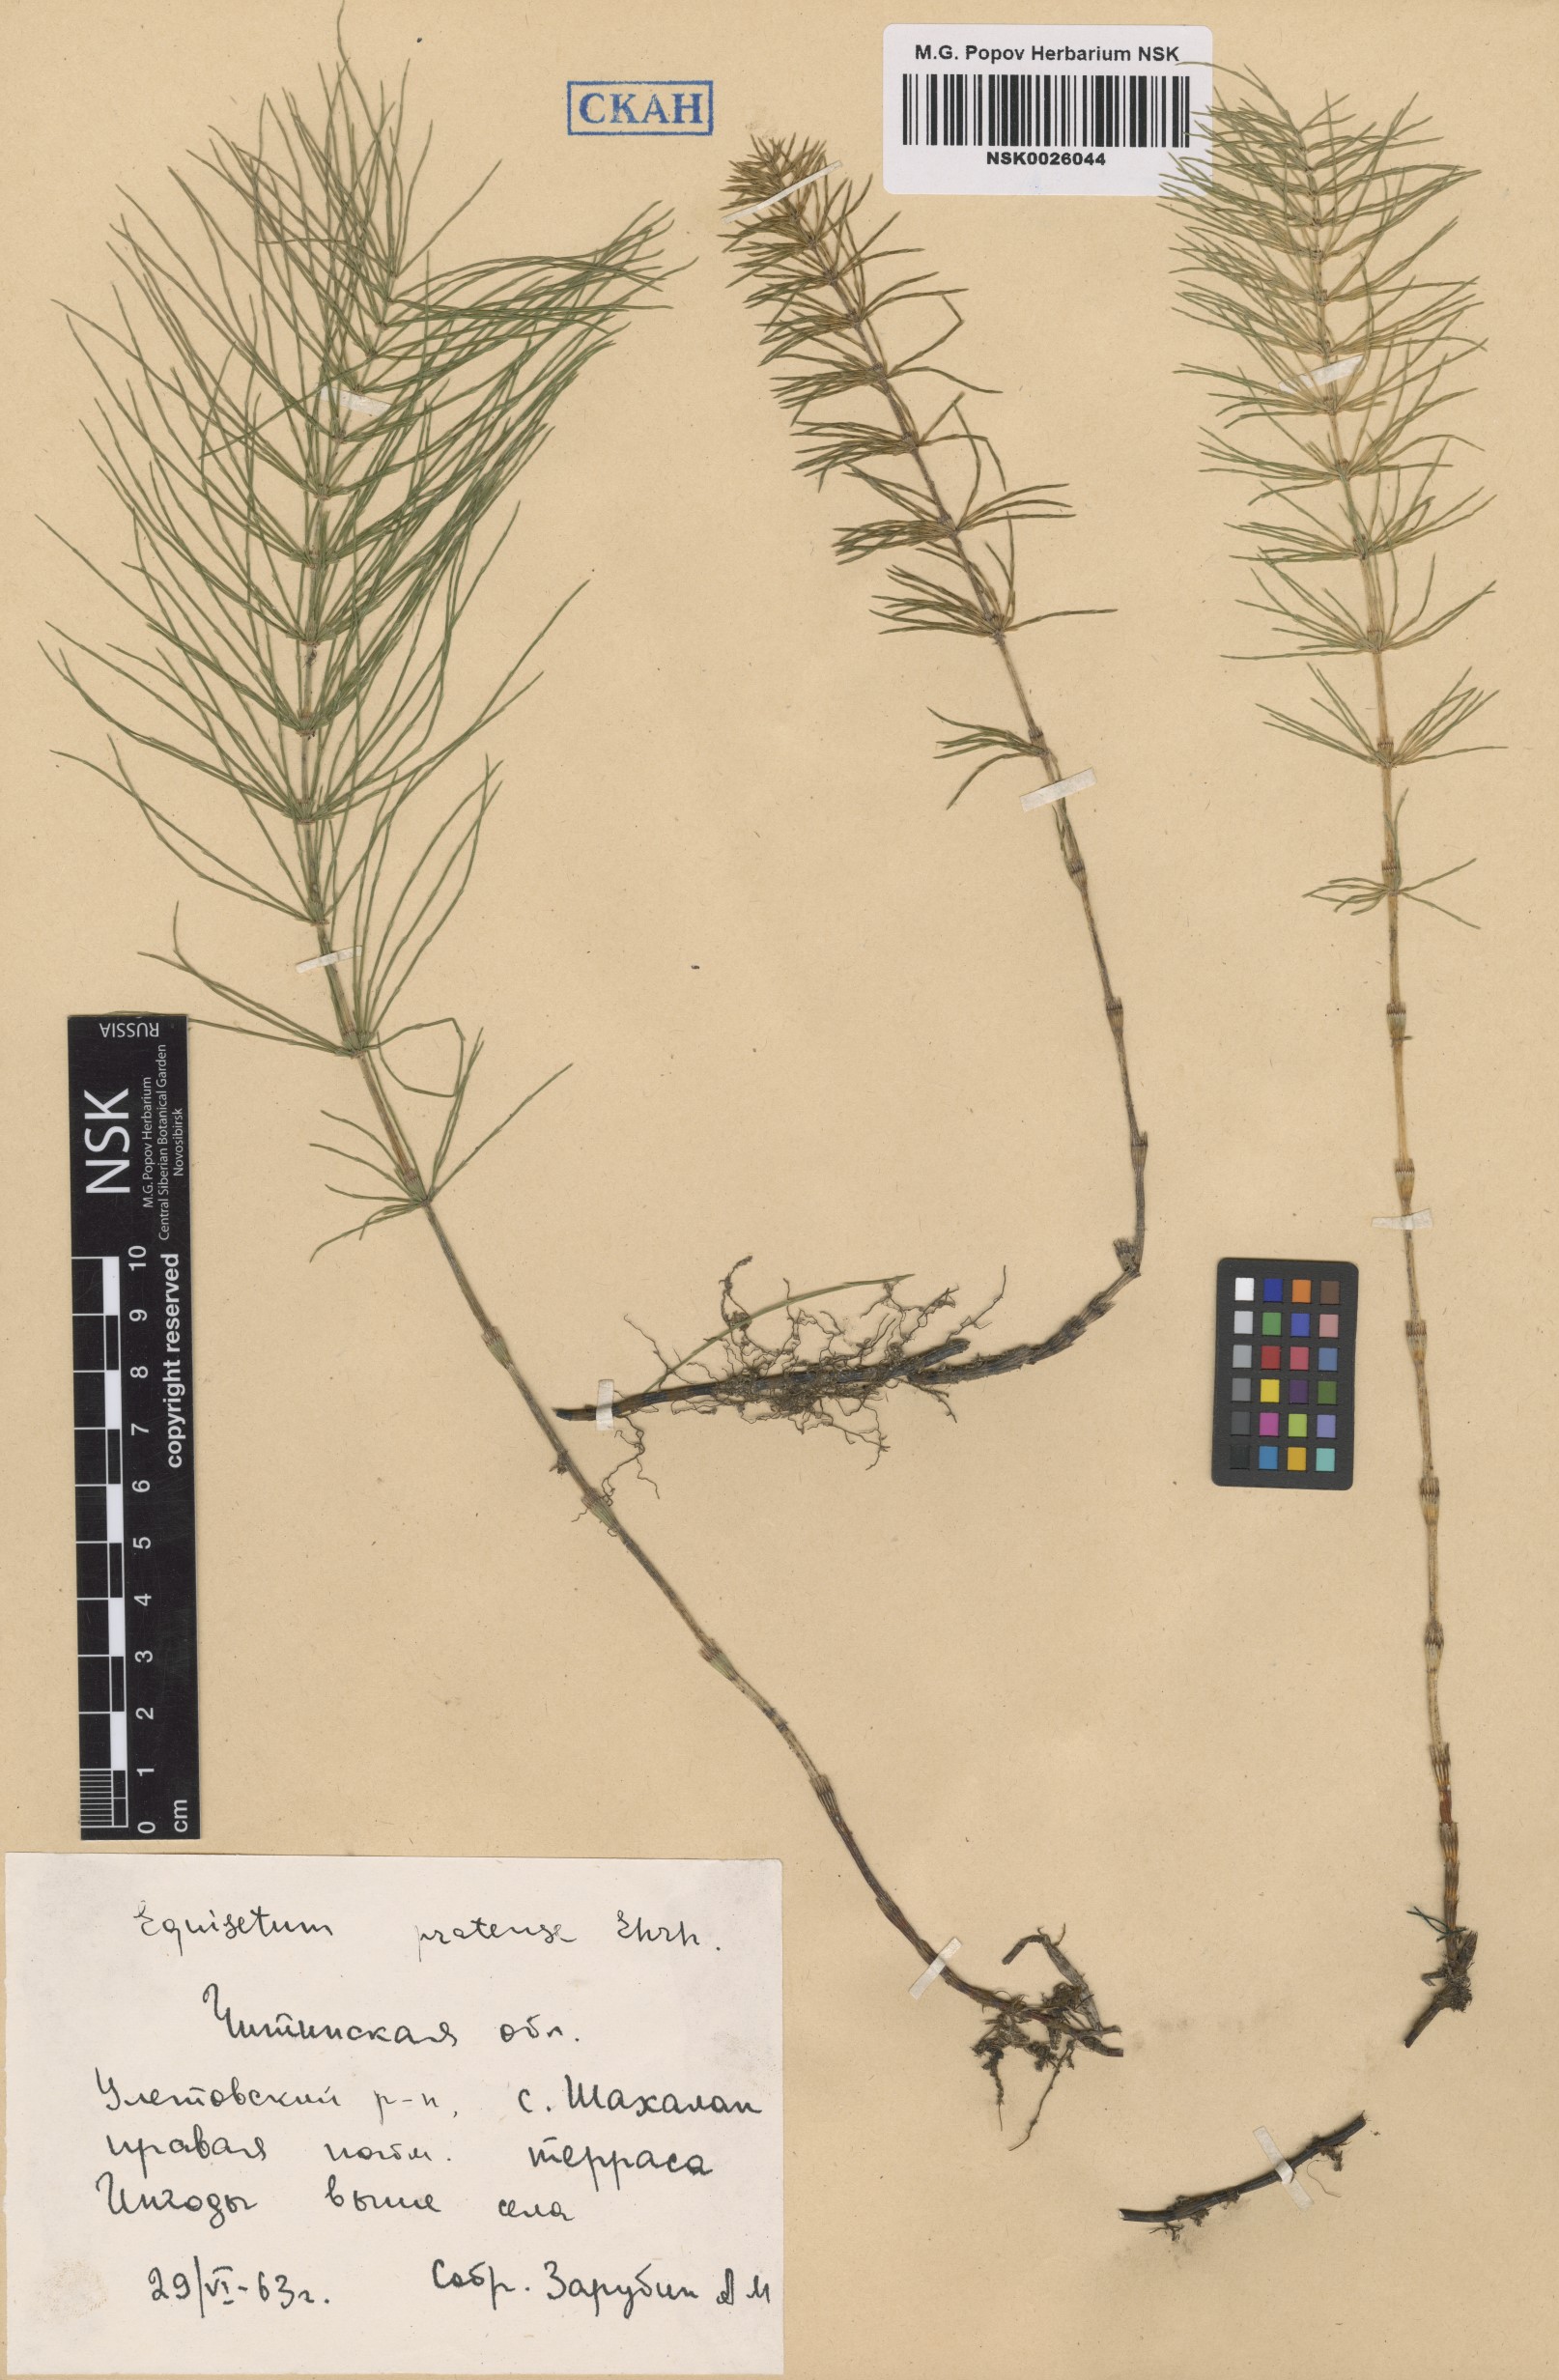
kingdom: Plantae
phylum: Tracheophyta
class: Polypodiopsida
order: Equisetales
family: Equisetaceae
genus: Equisetum
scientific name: Equisetum pratense
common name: Meadow horsetail
